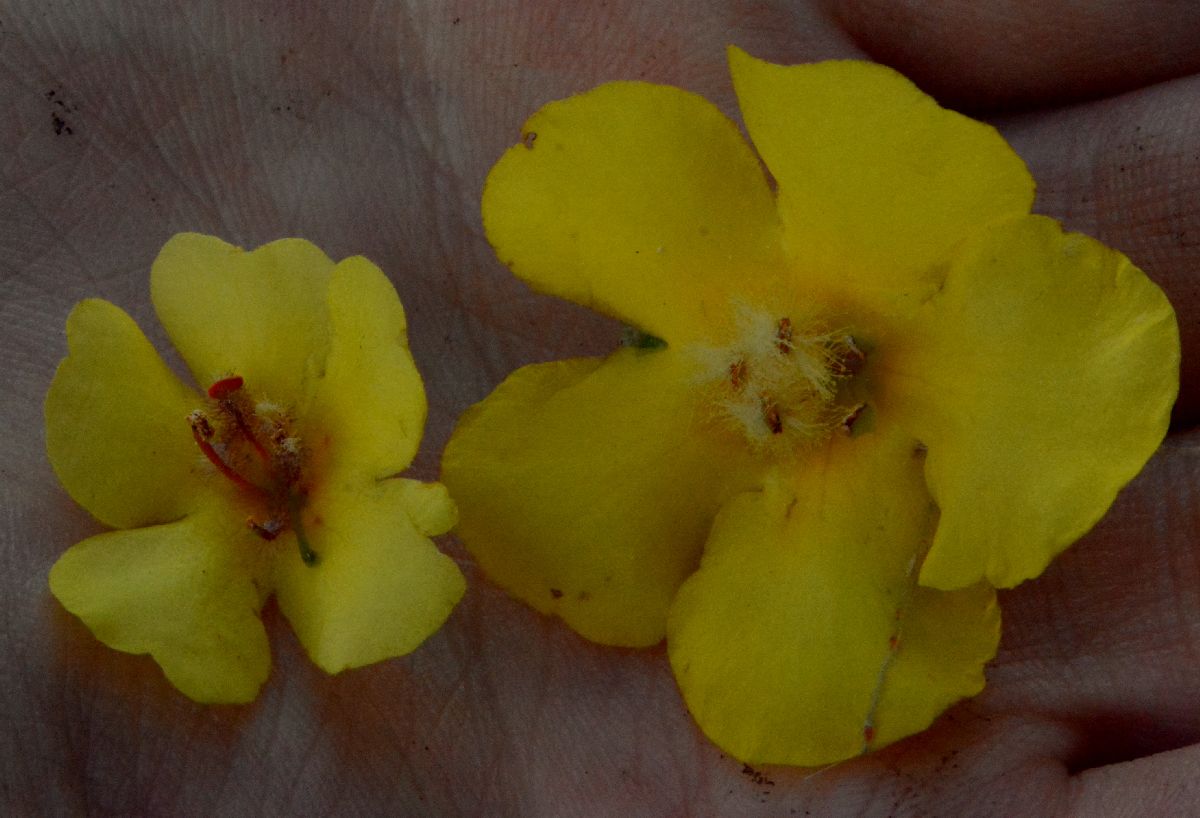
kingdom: Plantae
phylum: Tracheophyta
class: Magnoliopsida
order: Lamiales
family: Scrophulariaceae
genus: Verbascum
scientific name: Verbascum
